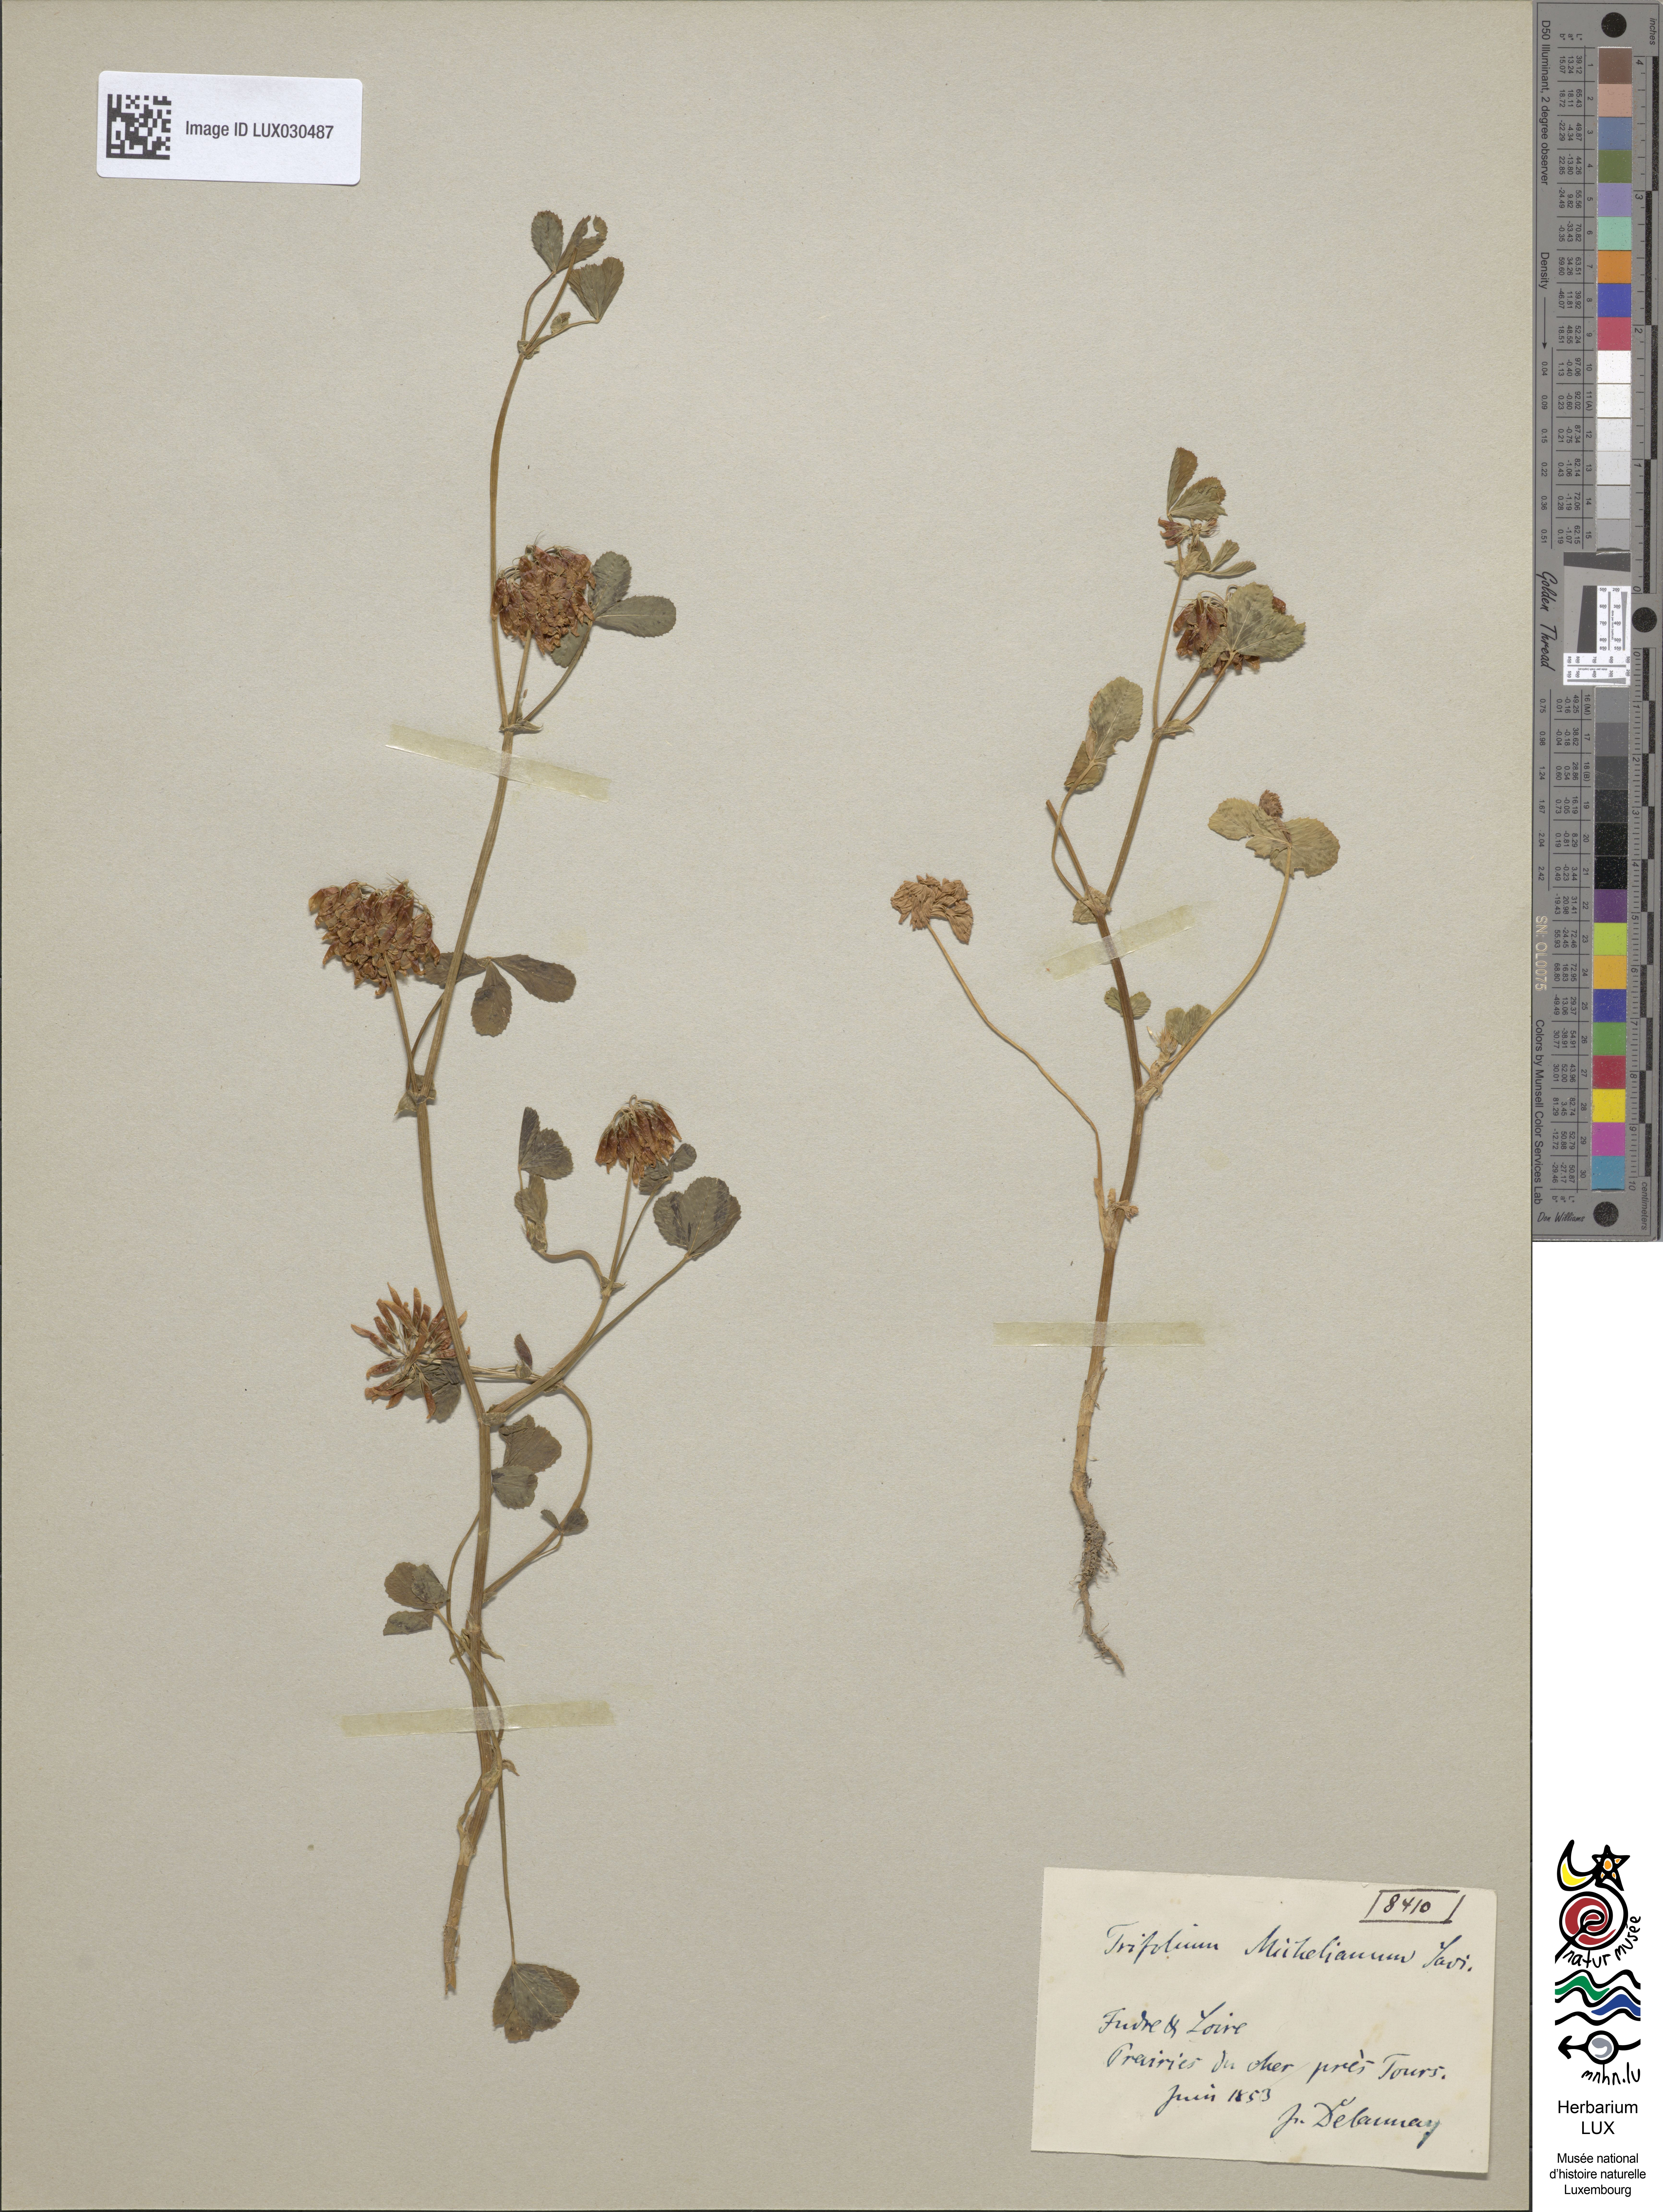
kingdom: Plantae
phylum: Tracheophyta
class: Magnoliopsida
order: Fabales
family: Fabaceae
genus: Trifolium
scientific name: Trifolium michelianum
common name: Bigflower clover
